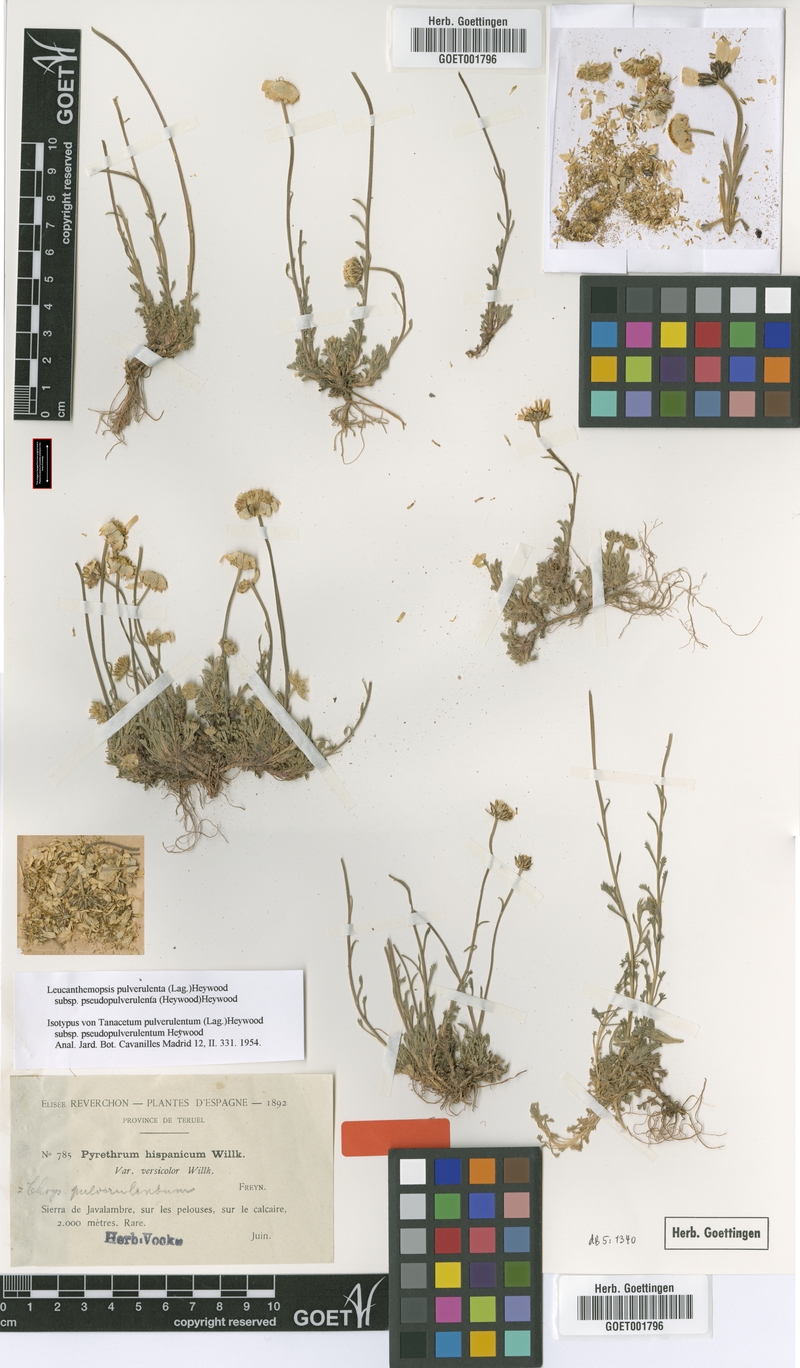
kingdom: Plantae
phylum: Tracheophyta
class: Magnoliopsida
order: Asterales
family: Asteraceae
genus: Leucanthemopsis
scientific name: Leucanthemopsis heywoodii
